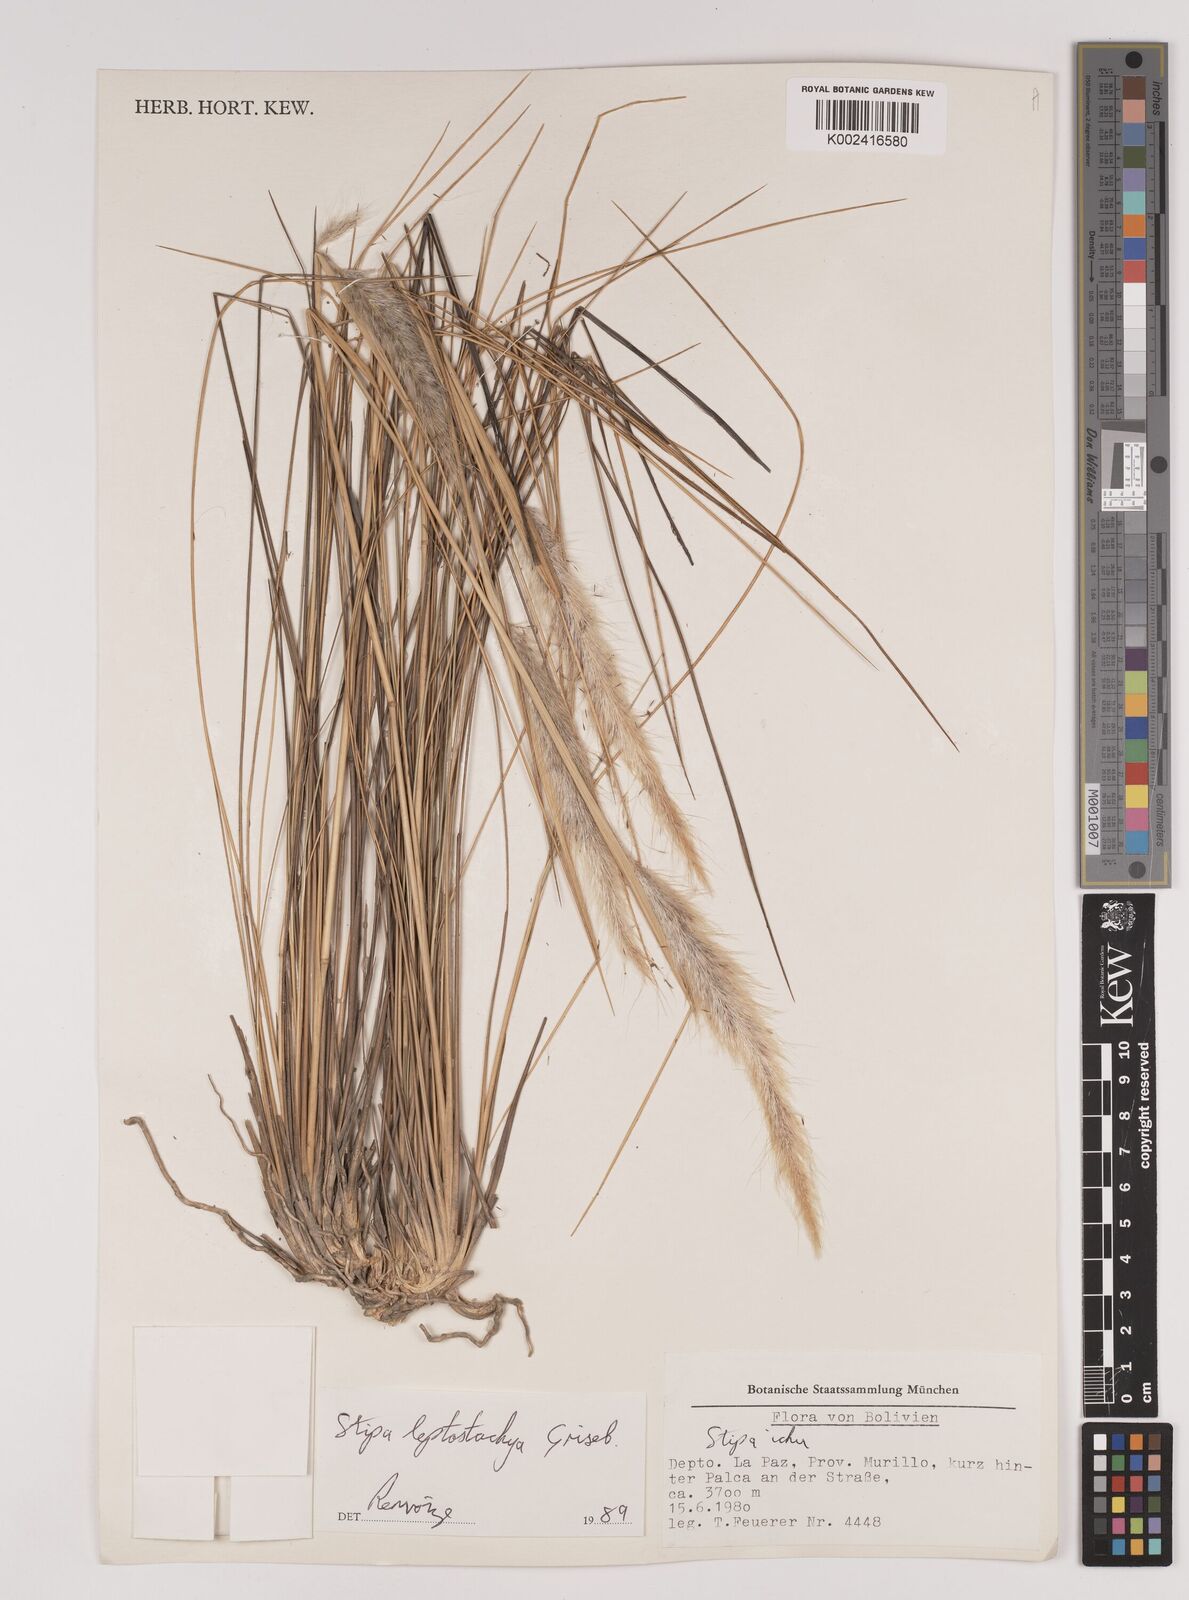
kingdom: Plantae
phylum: Tracheophyta
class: Liliopsida
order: Poales
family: Poaceae
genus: Jarava
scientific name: Jarava leptostachya
